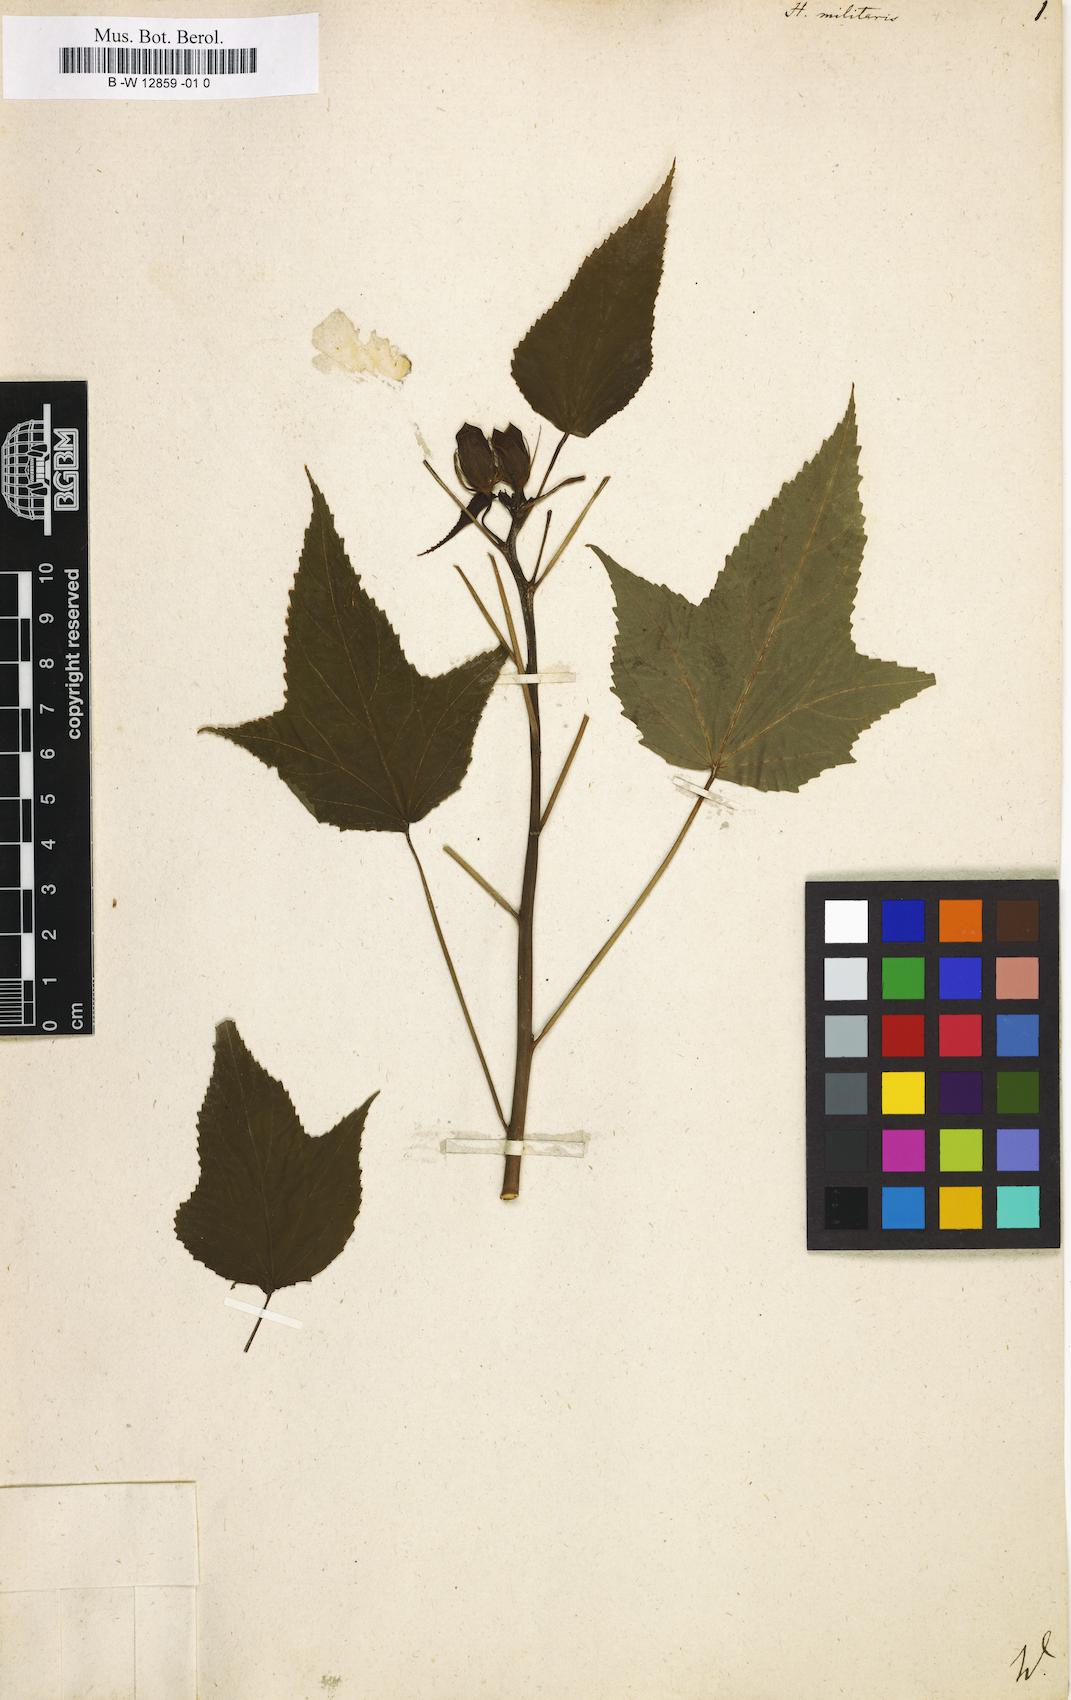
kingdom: Plantae
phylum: Tracheophyta
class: Magnoliopsida
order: Malvales
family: Malvaceae
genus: Hibiscus
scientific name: Hibiscus laevis
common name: Scarlet rose-mallow
